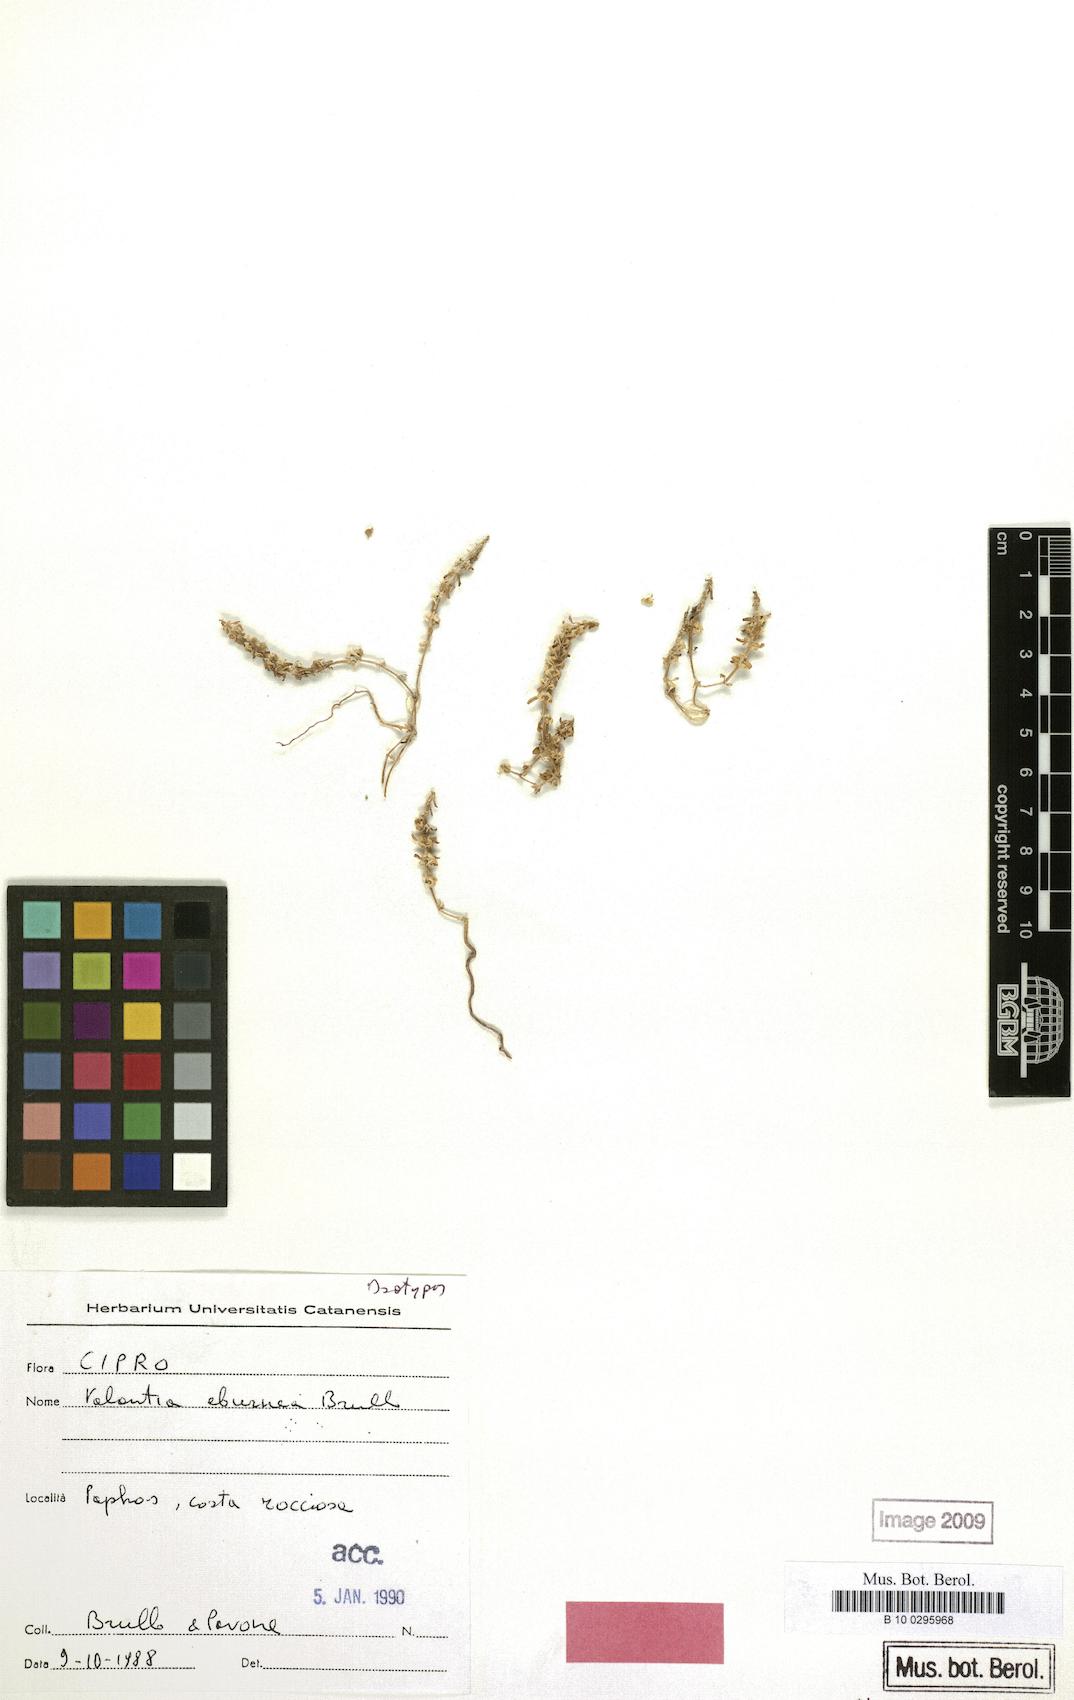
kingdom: Plantae
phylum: Tracheophyta
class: Magnoliopsida
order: Gentianales
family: Rubiaceae
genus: Valantia
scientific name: Valantia hispida
